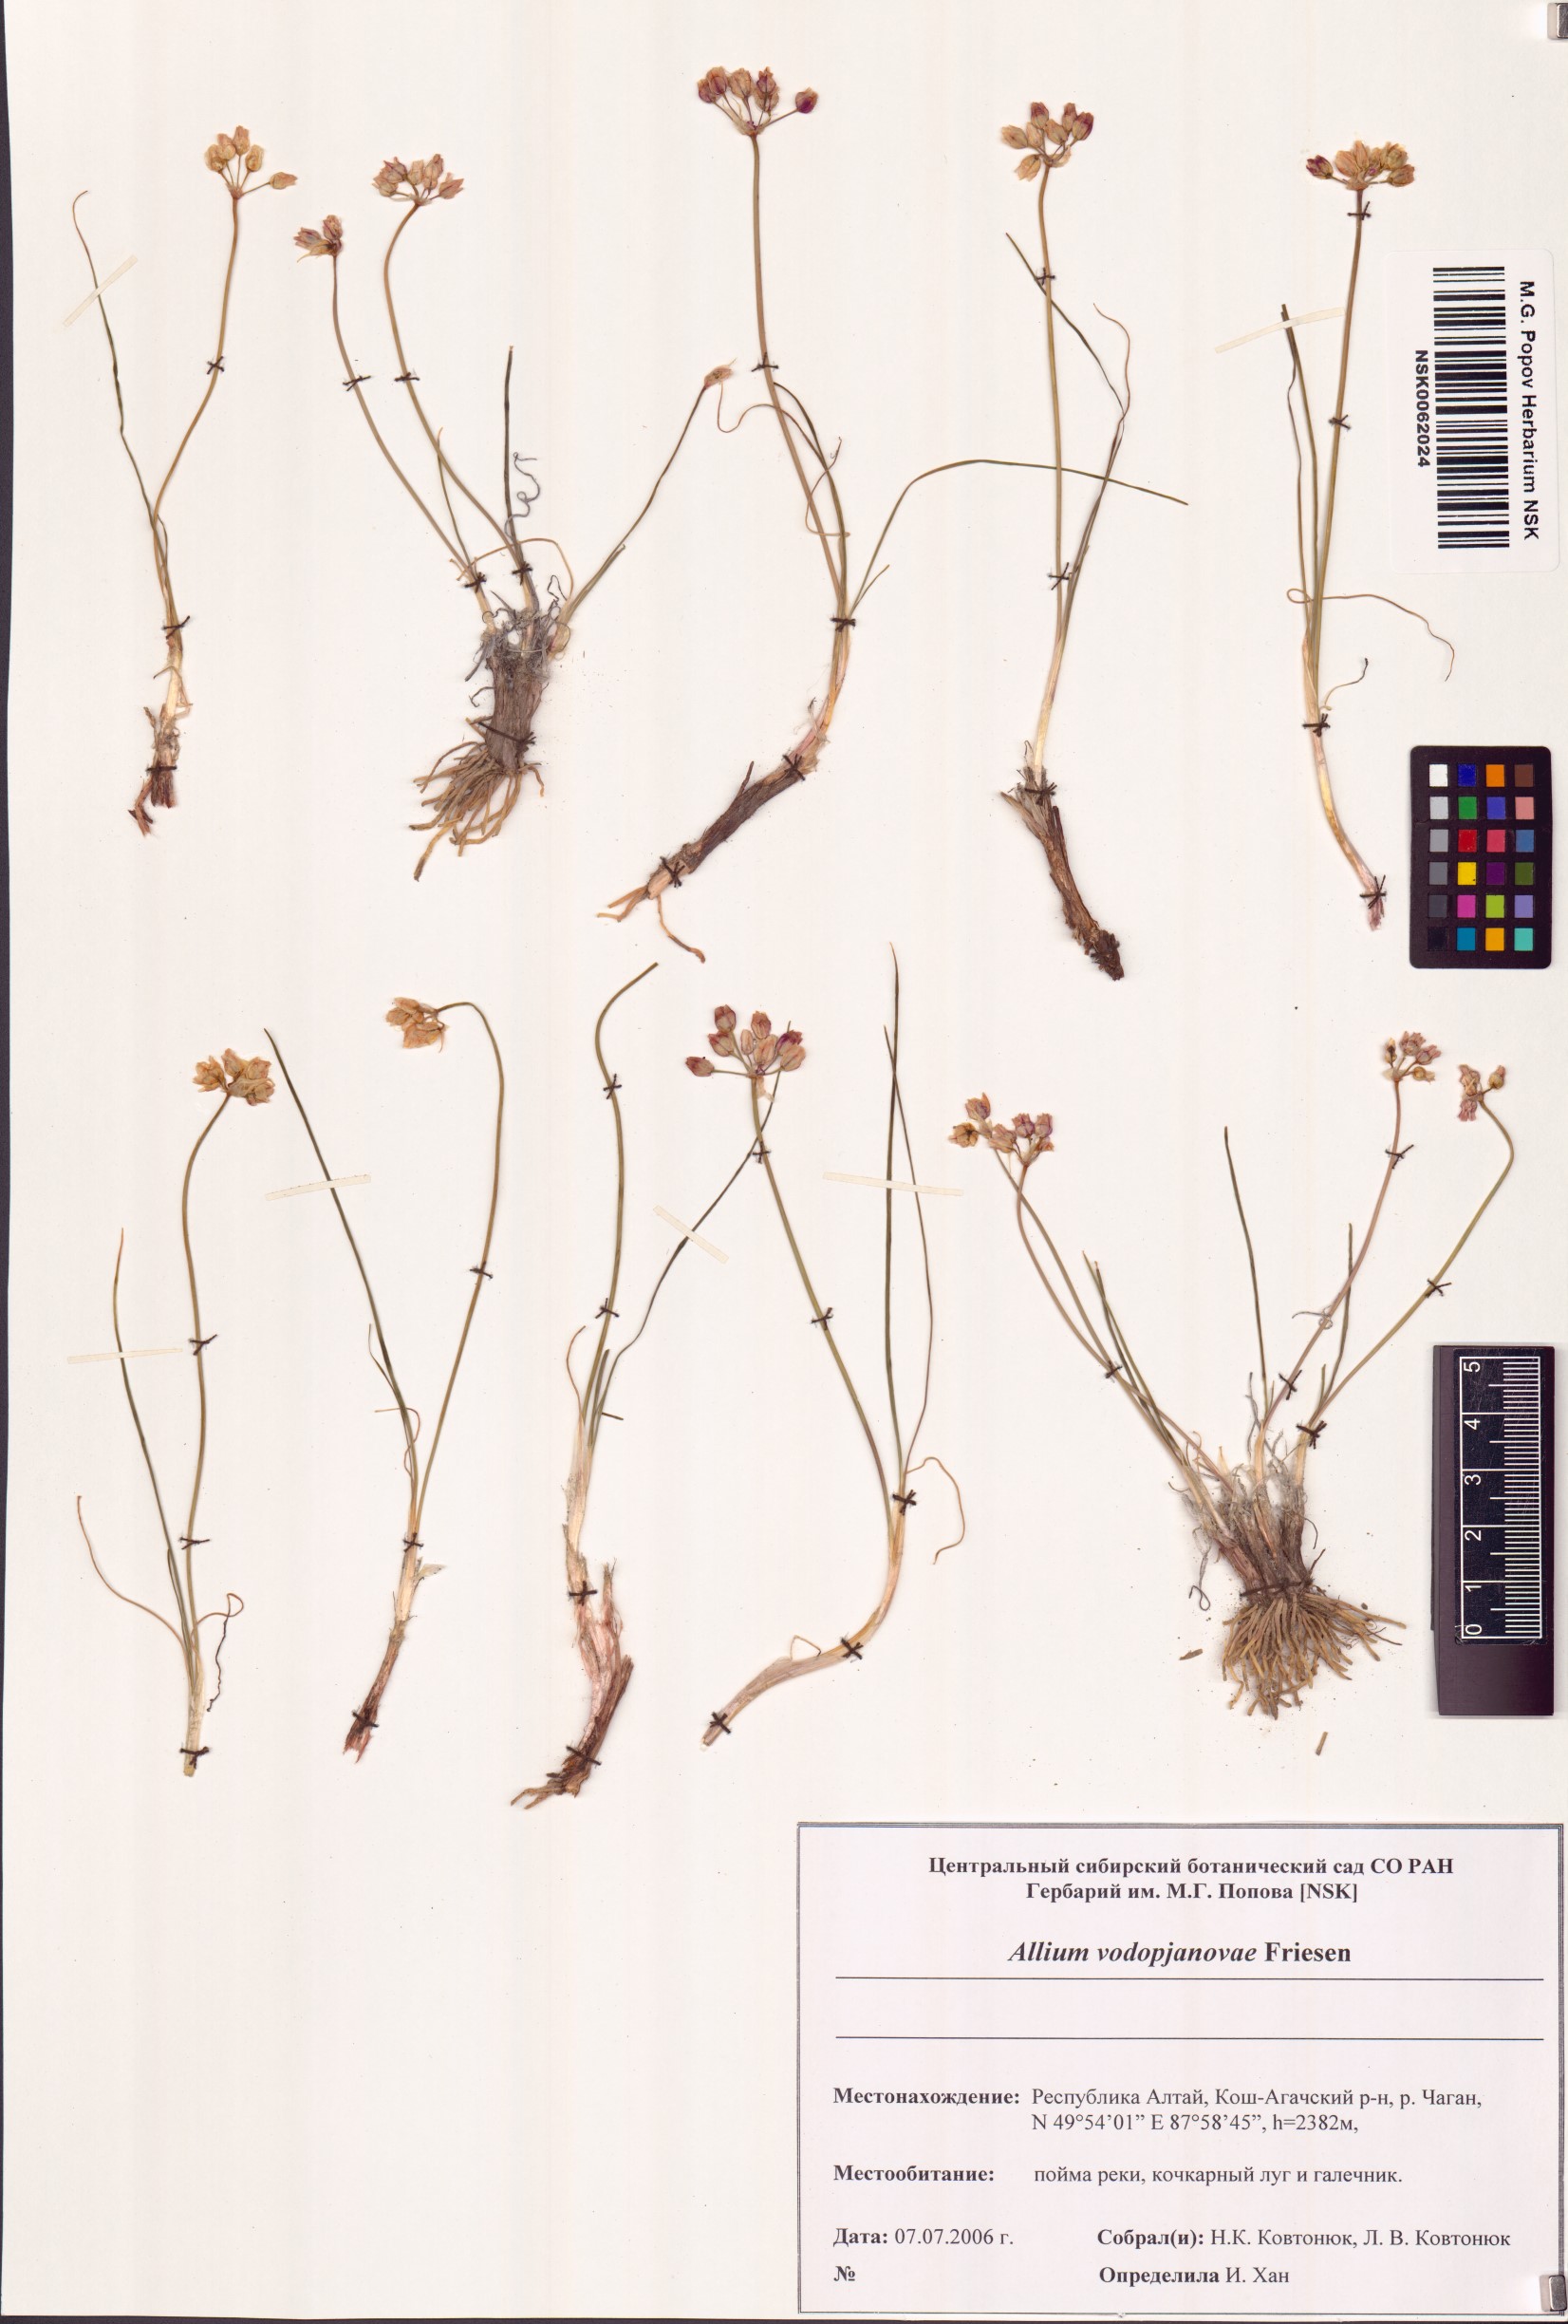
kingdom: Plantae
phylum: Tracheophyta
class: Liliopsida
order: Asparagales
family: Amaryllidaceae
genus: Allium
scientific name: Allium vodopjanovae
